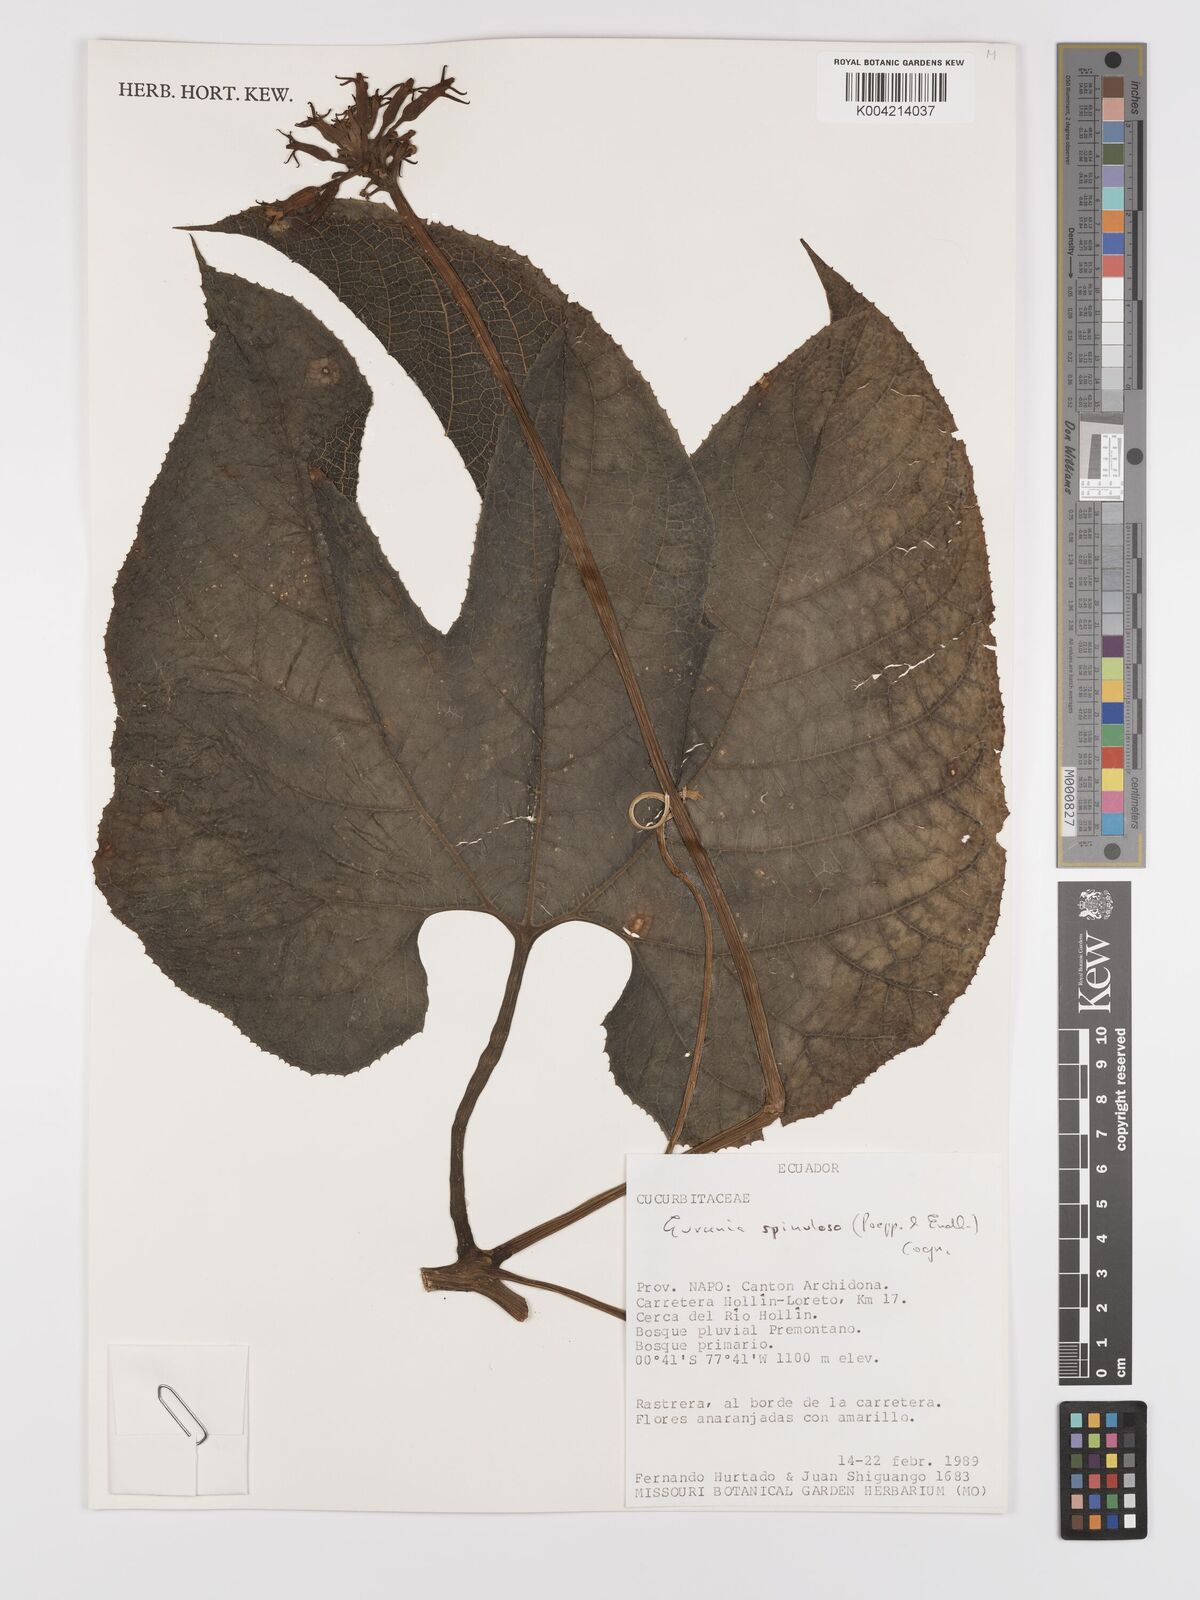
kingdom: Plantae
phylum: Tracheophyta
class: Magnoliopsida
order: Cucurbitales
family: Cucurbitaceae
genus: Gurania
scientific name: Gurania lobata
